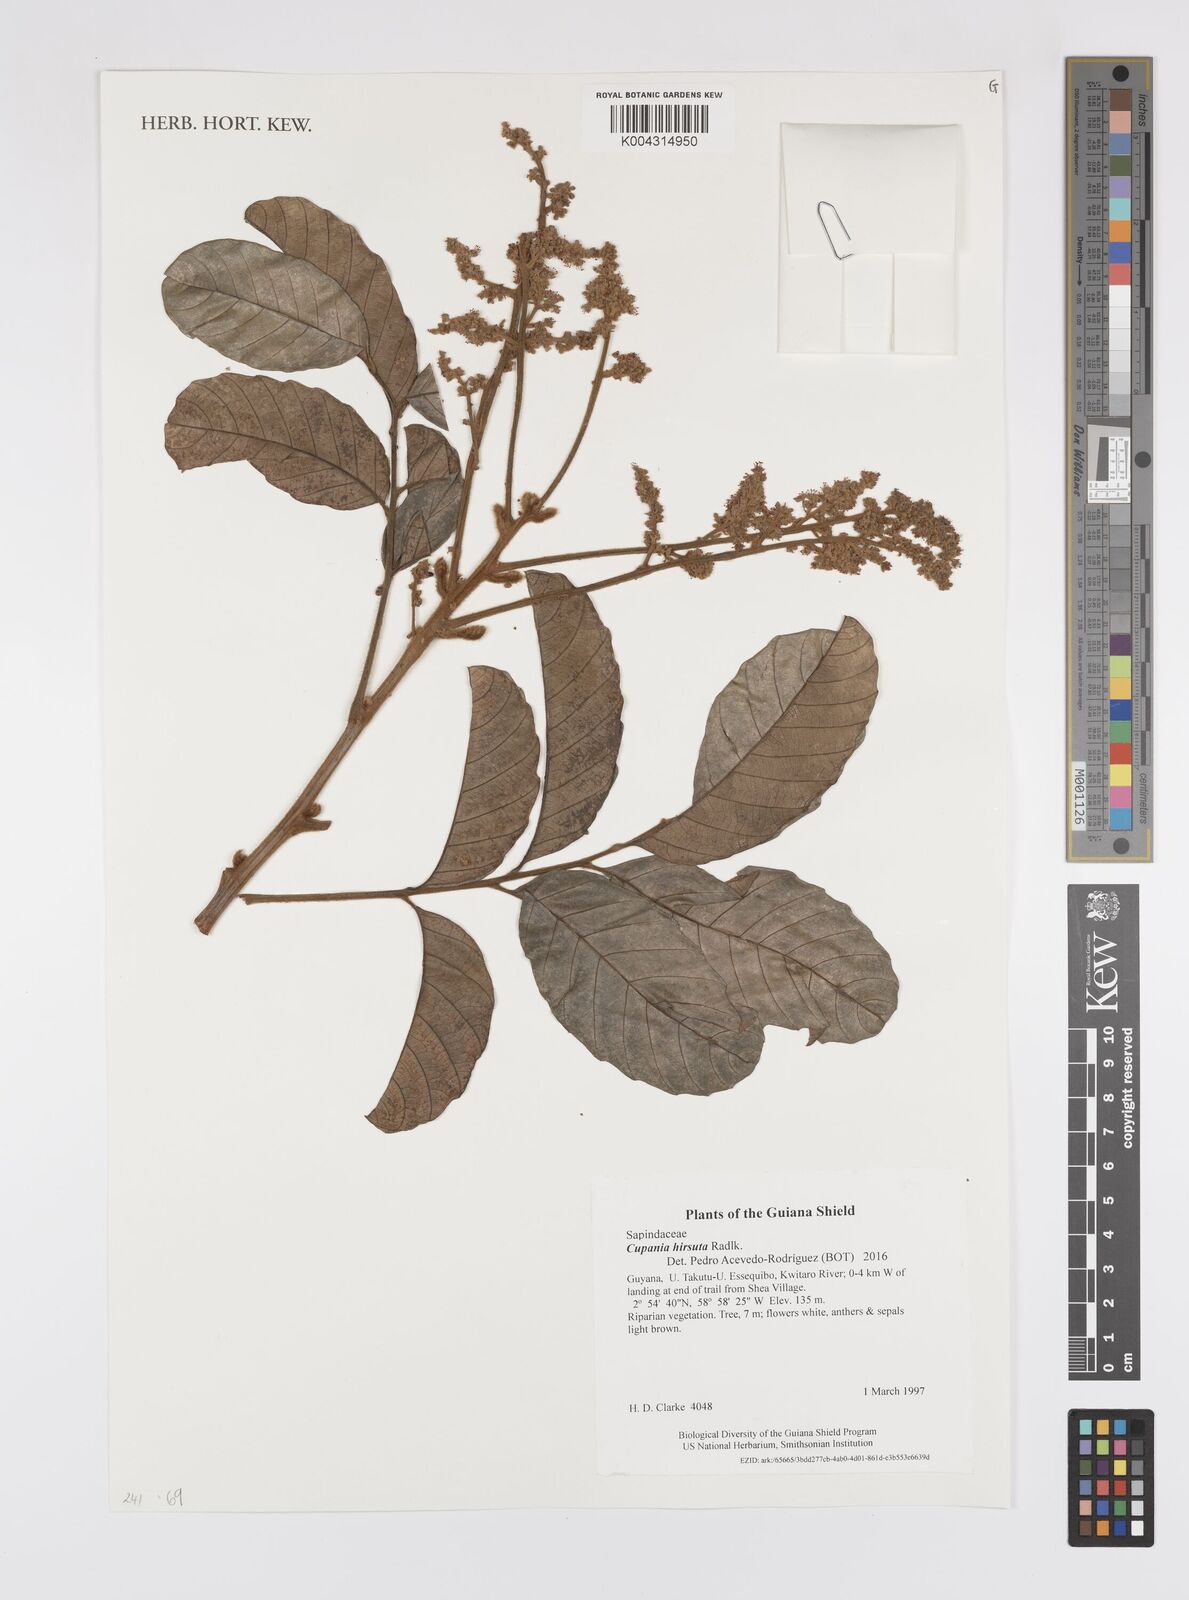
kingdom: Plantae
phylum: Tracheophyta
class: Magnoliopsida
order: Sapindales
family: Sapindaceae
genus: Cupania
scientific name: Cupania hirsuta
